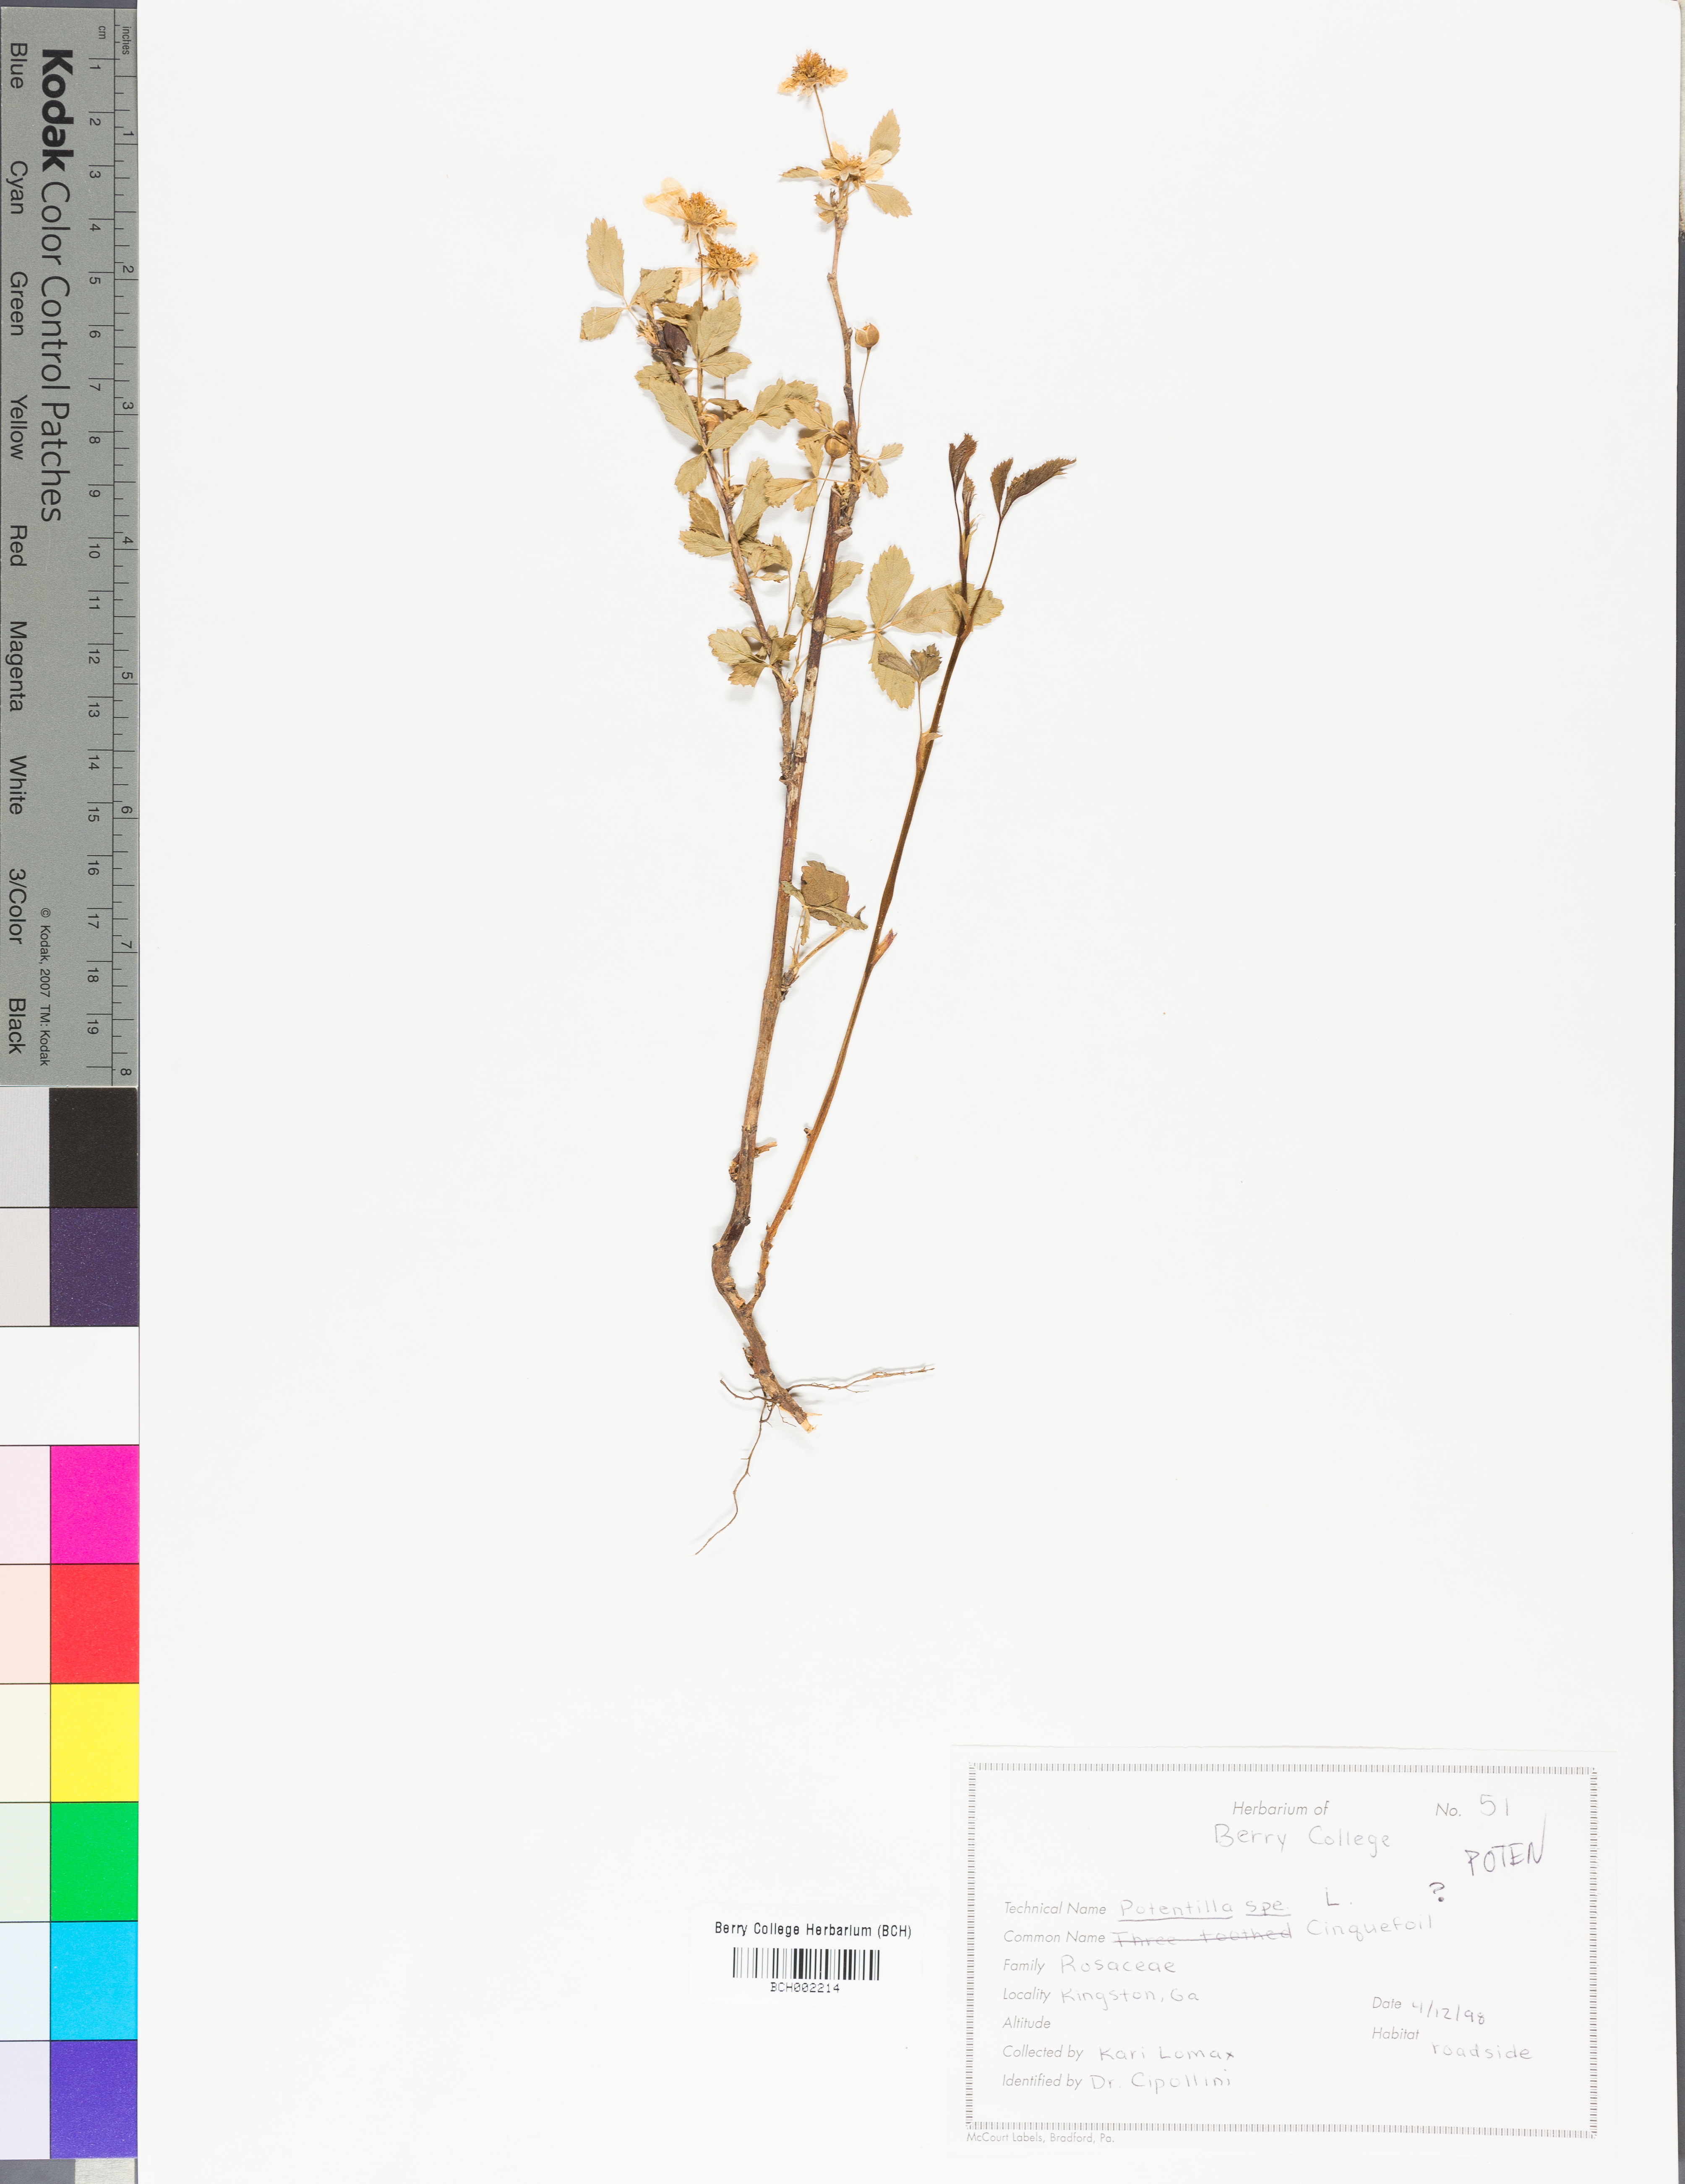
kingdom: Plantae
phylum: Tracheophyta
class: Magnoliopsida
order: Rosales
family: Rosaceae
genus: Potentilla
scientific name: Potentilla
